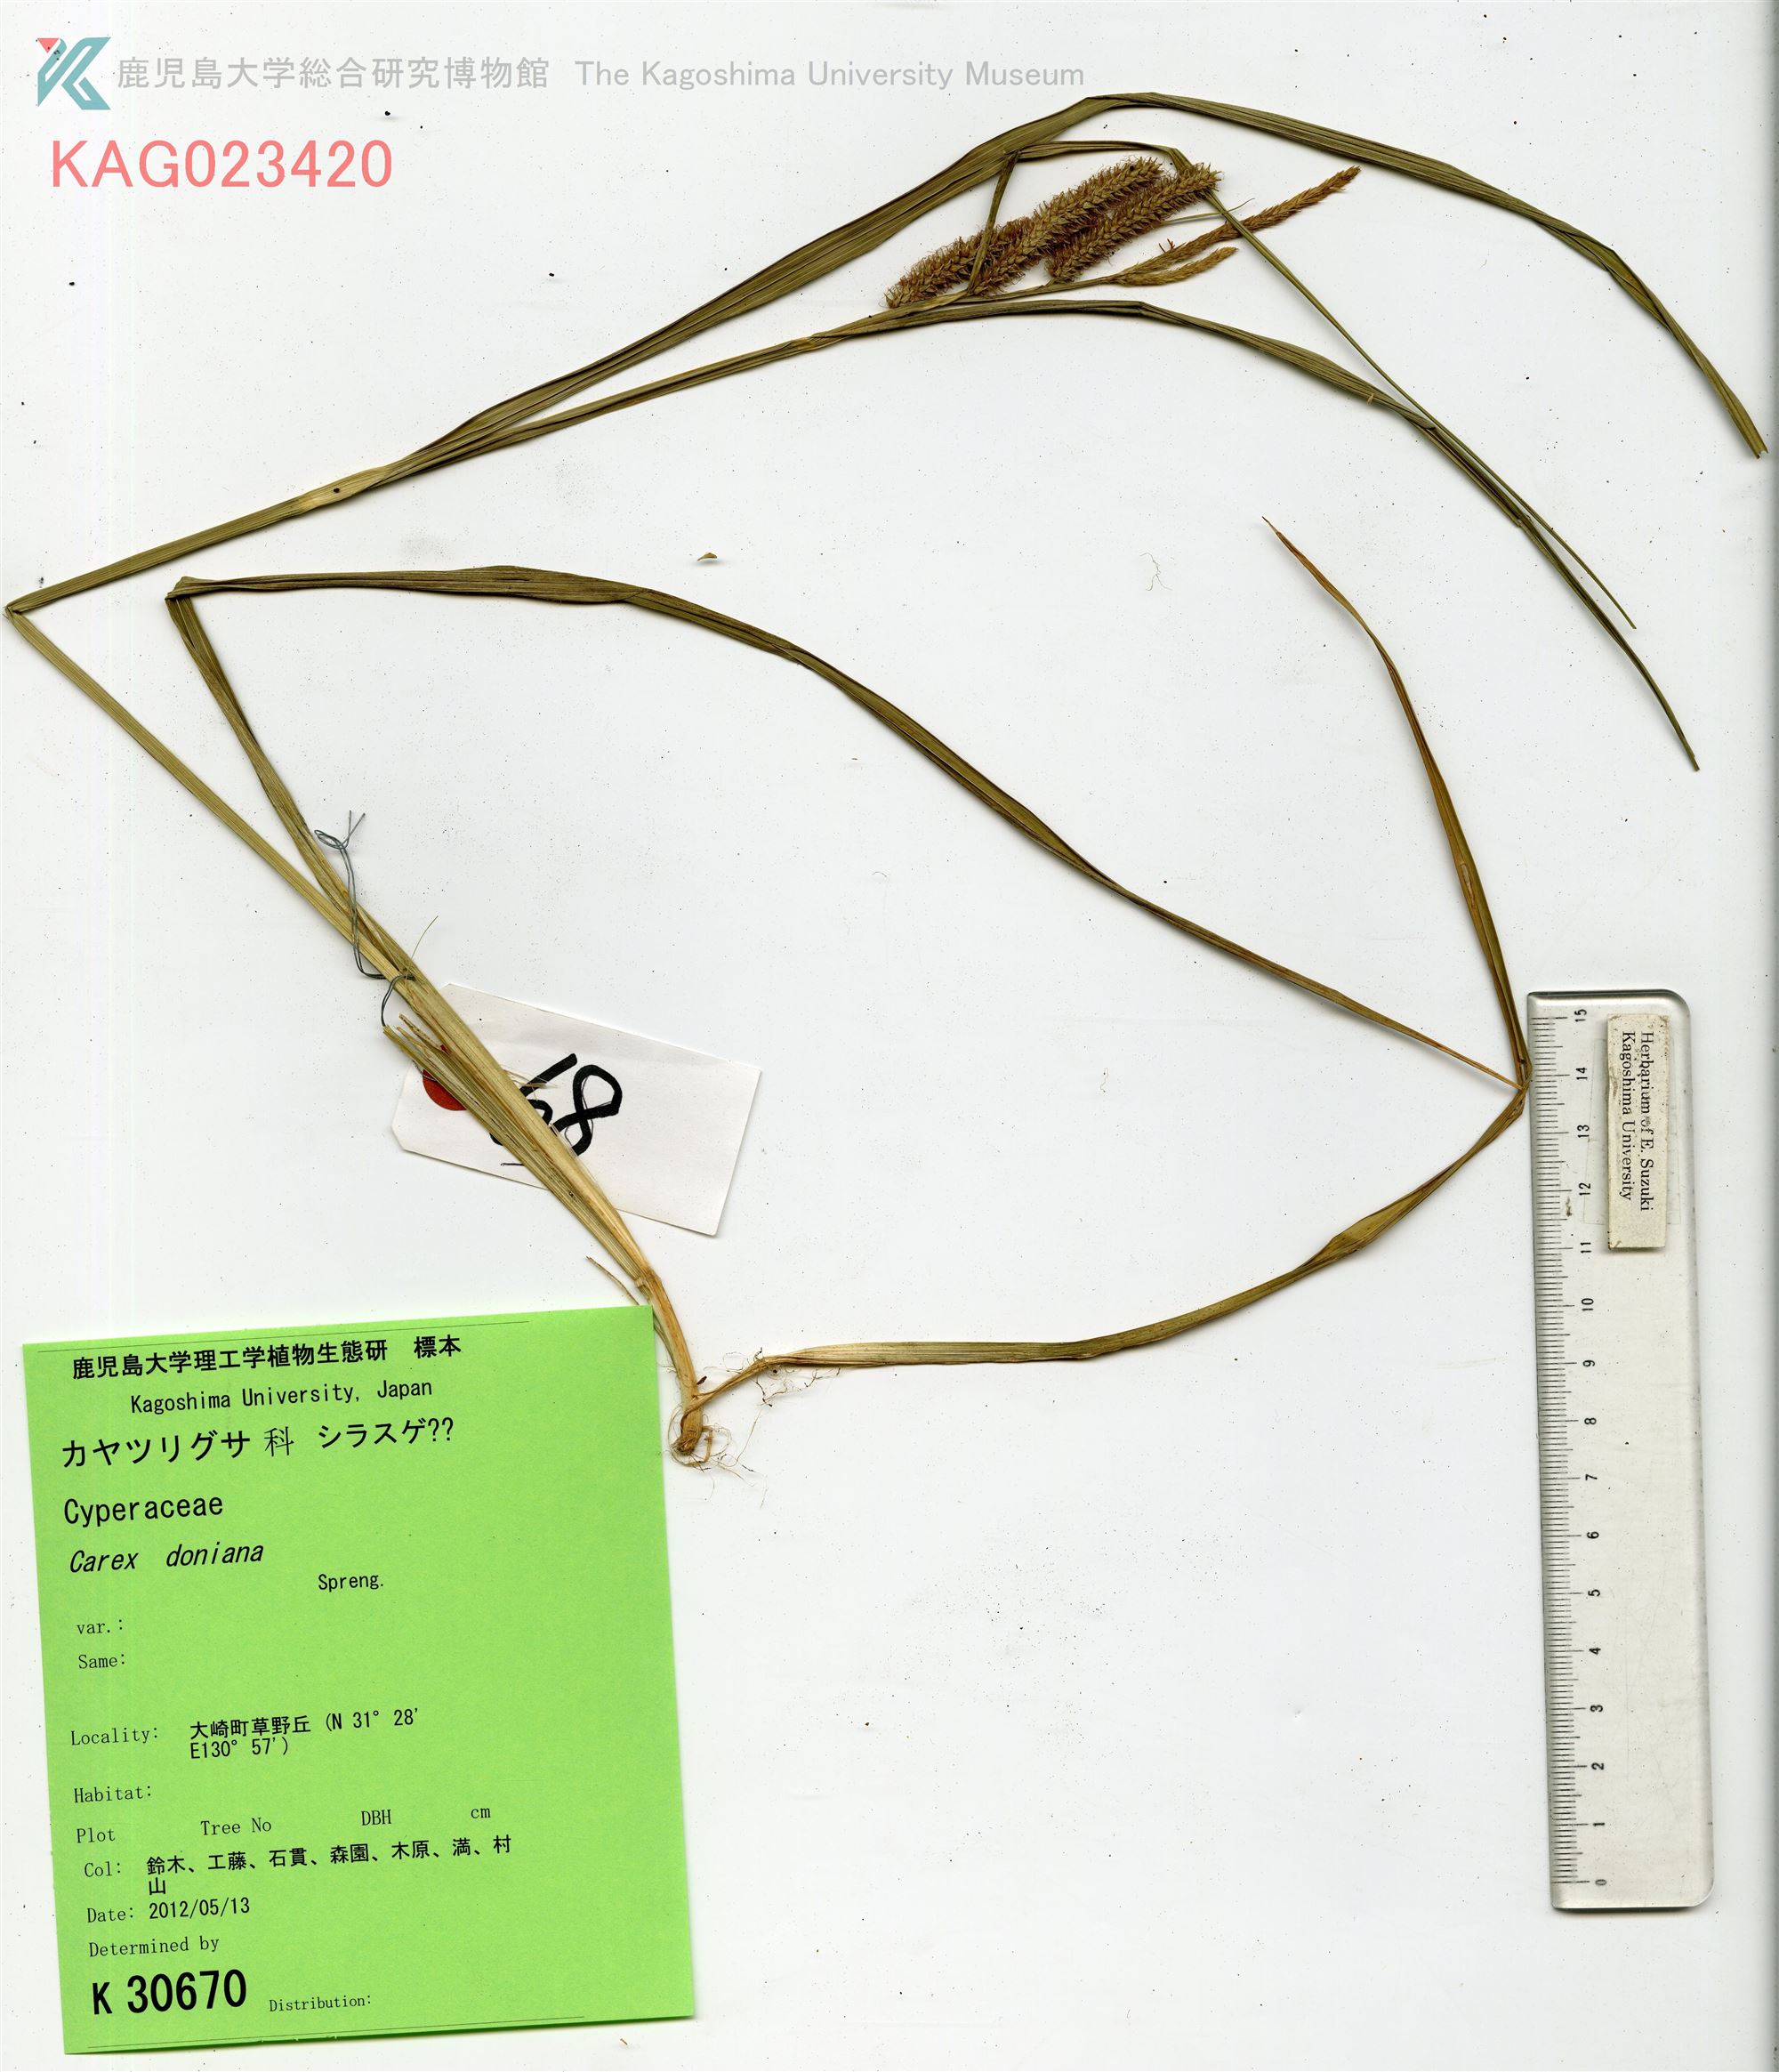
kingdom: Plantae
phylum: Tracheophyta
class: Liliopsida
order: Poales
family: Cyperaceae
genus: Carex
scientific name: Carex doniana
